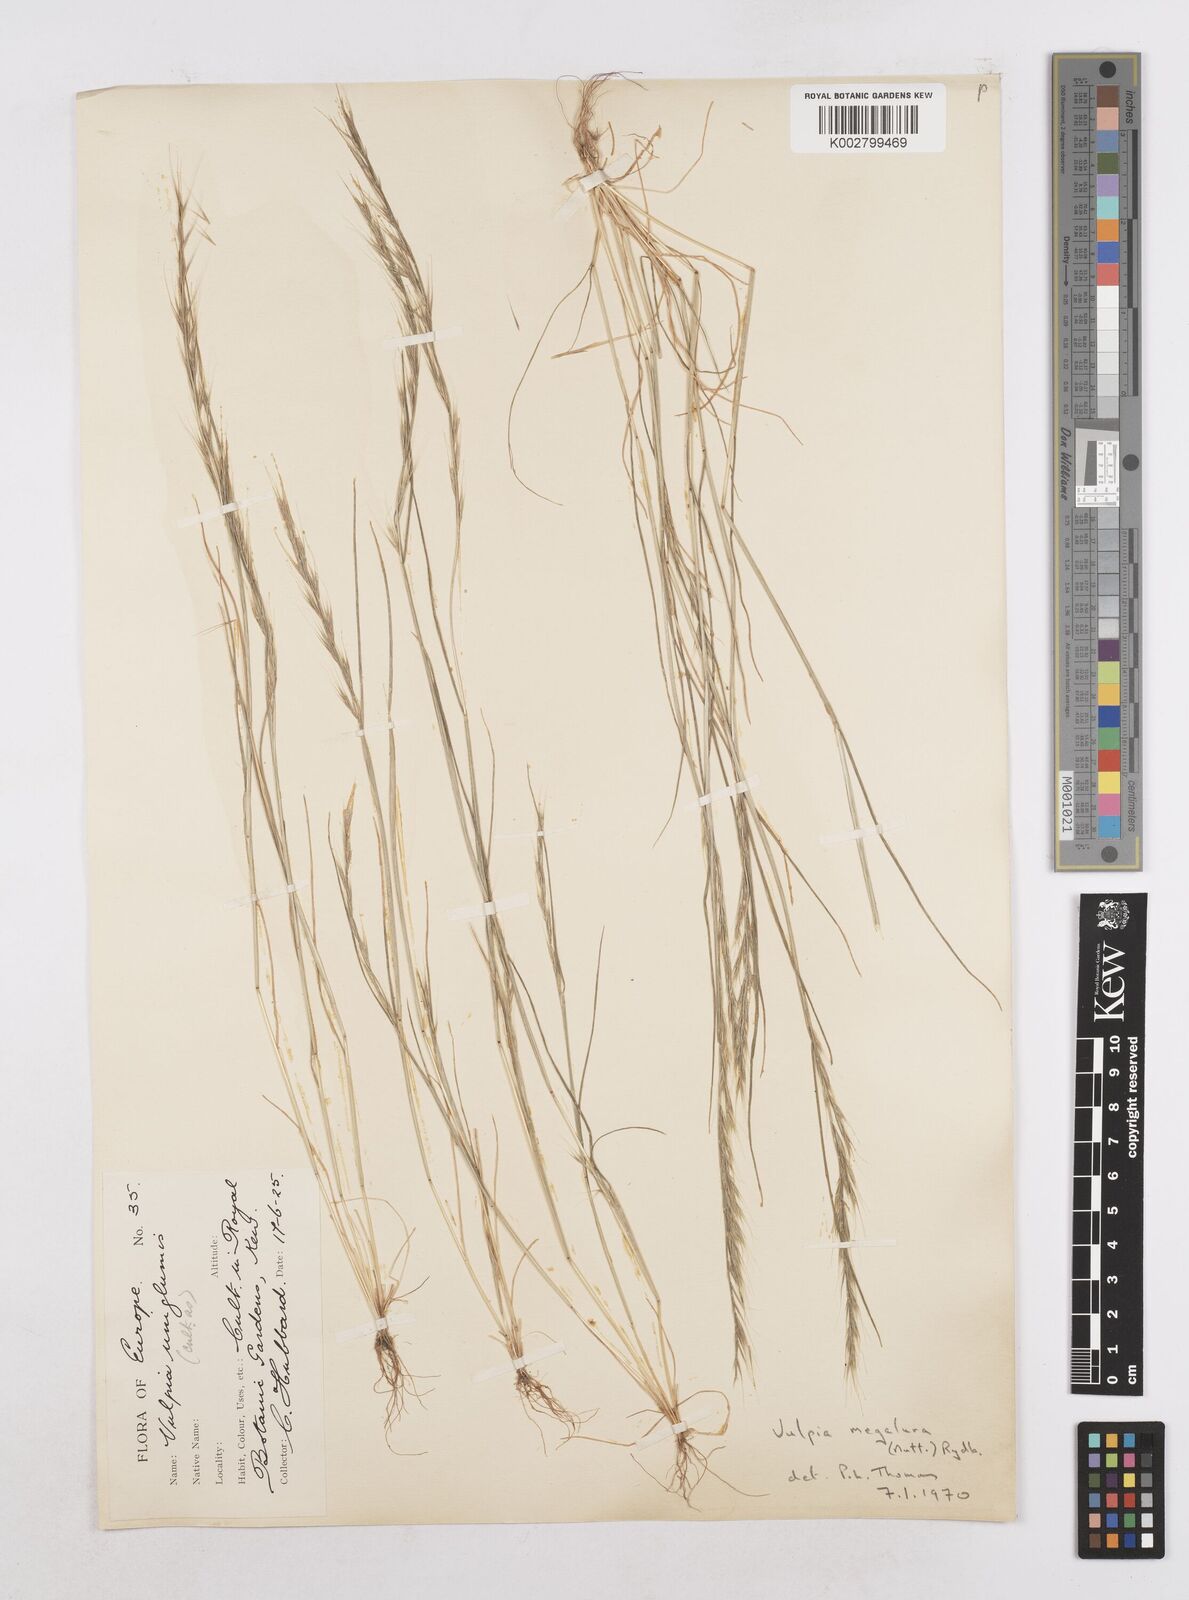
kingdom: Plantae
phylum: Tracheophyta
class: Liliopsida
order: Poales
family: Poaceae
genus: Festuca
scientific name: Festuca myuros
